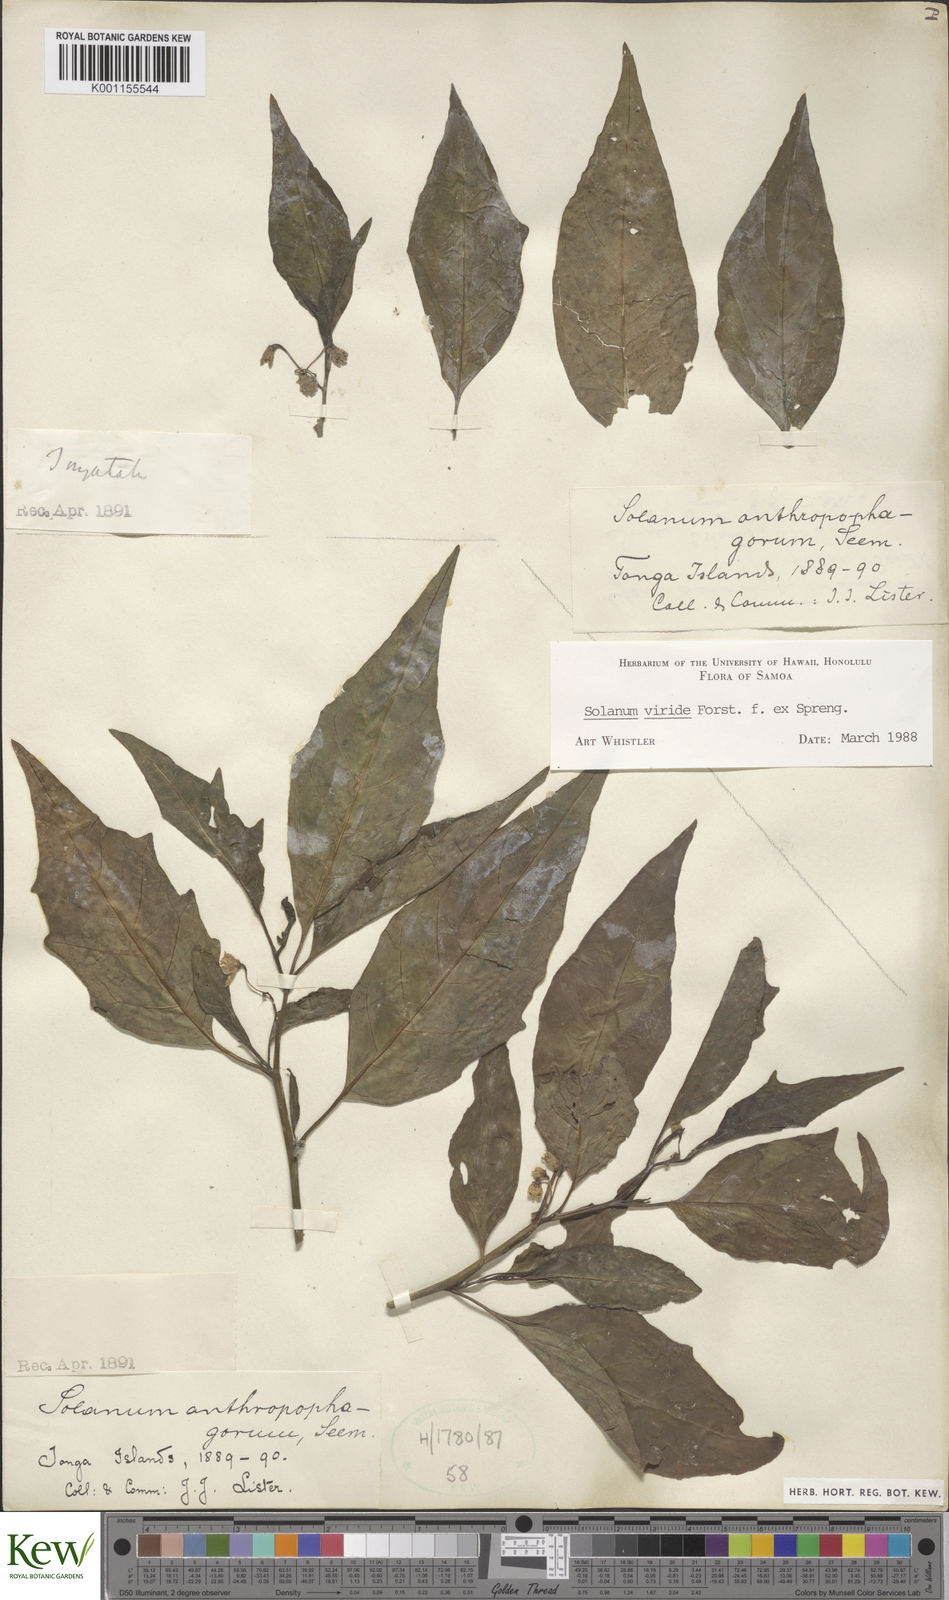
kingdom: Plantae
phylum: Tracheophyta
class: Magnoliopsida
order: Solanales
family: Solanaceae
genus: Solanum
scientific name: Solanum
